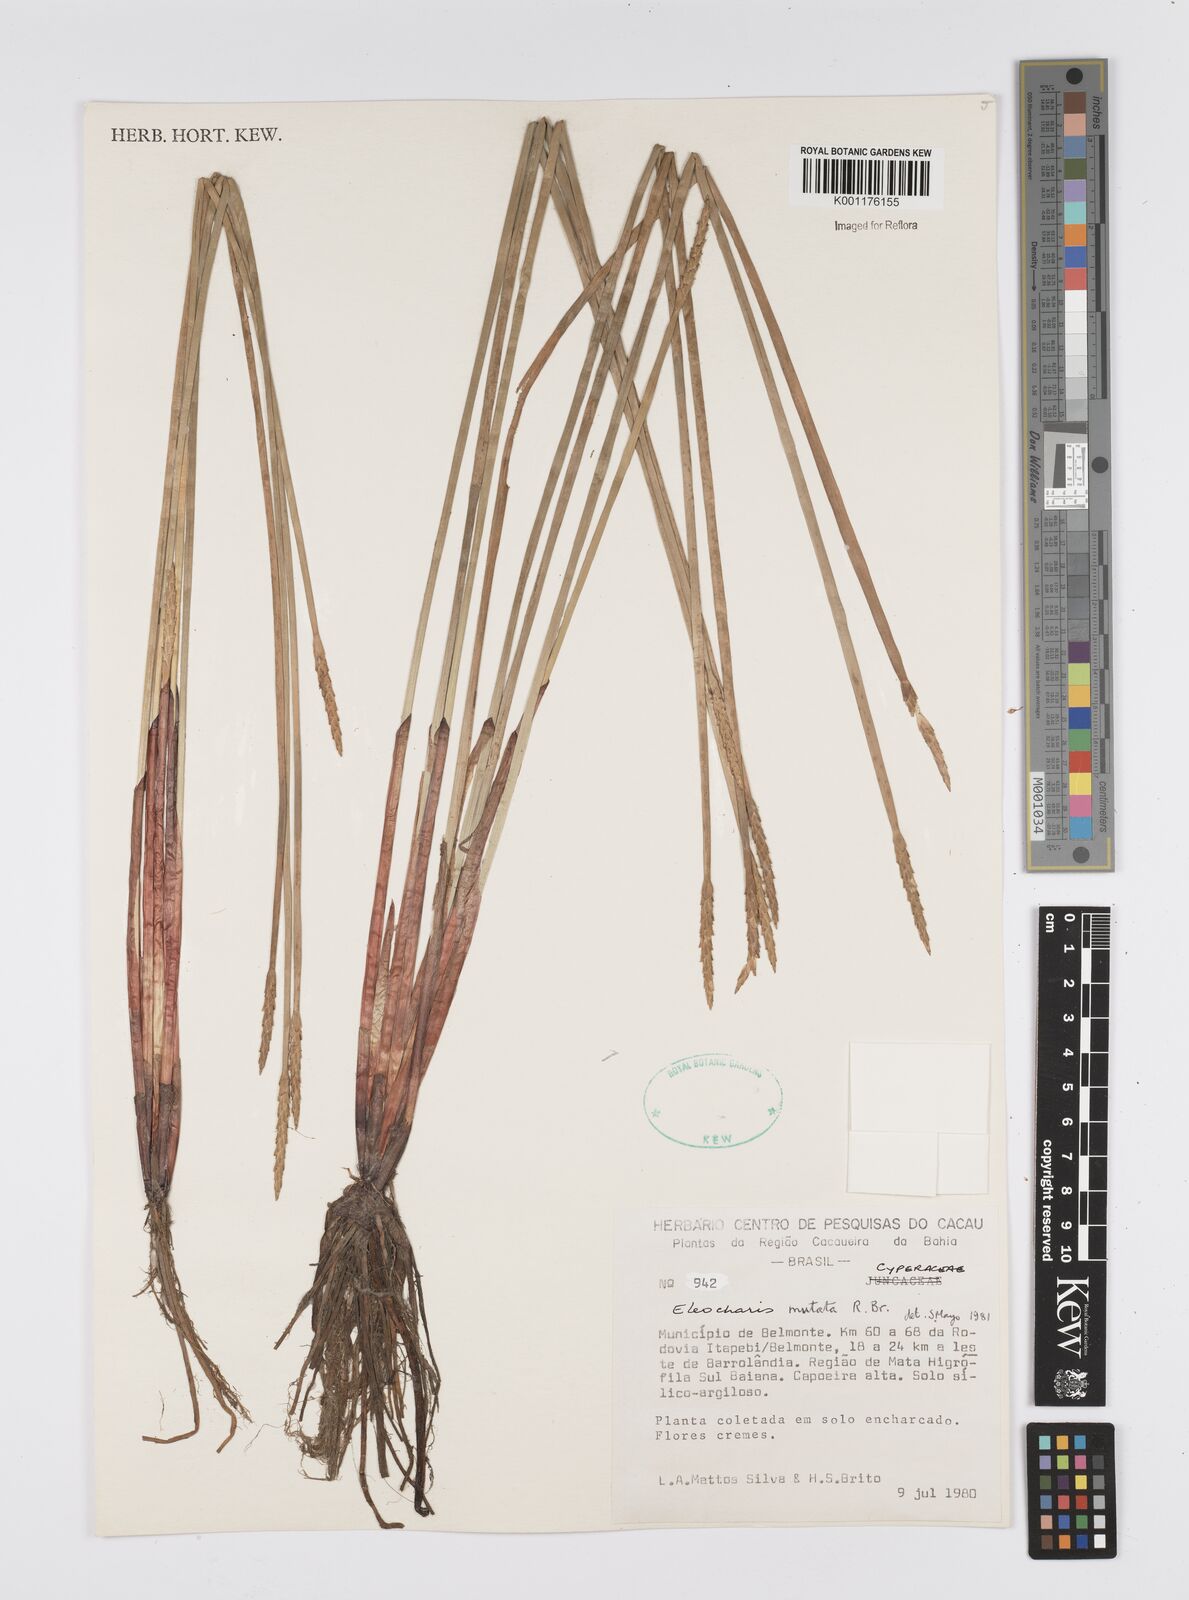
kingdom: Plantae
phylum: Tracheophyta
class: Liliopsida
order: Poales
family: Cyperaceae
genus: Eleocharis
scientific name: Eleocharis mutata
